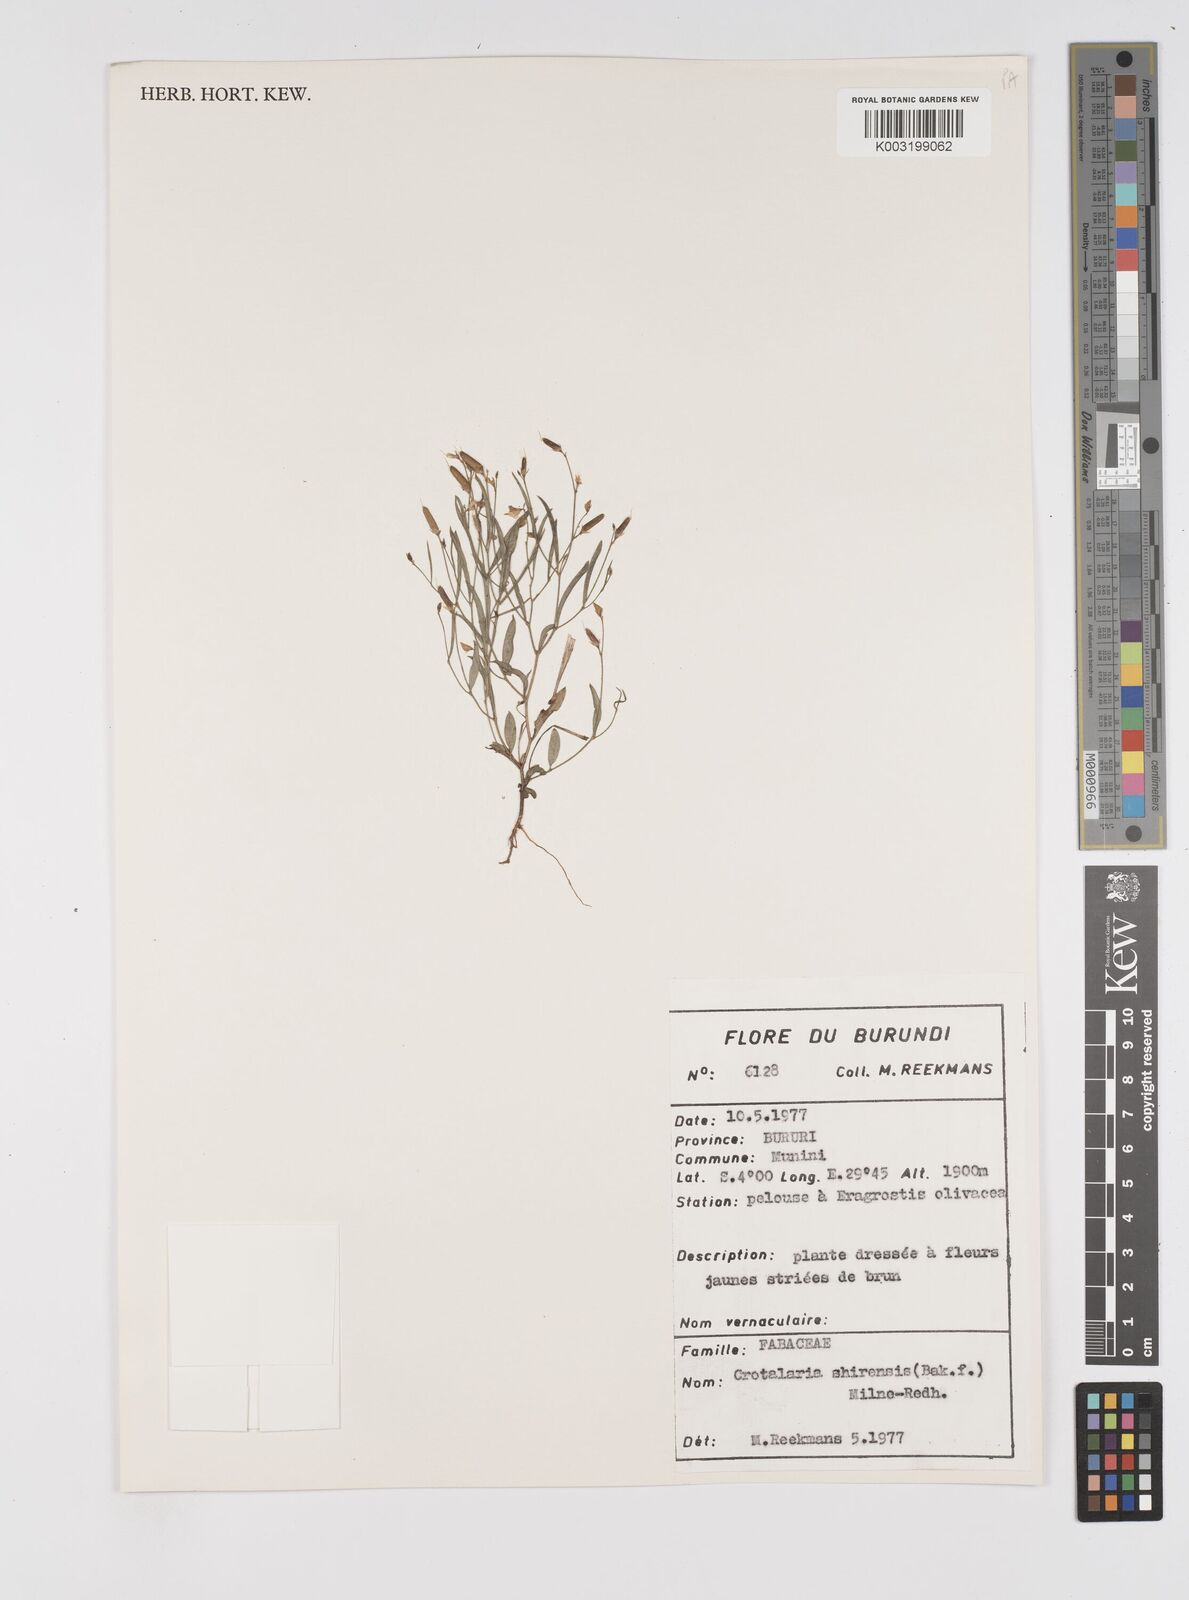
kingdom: Plantae
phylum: Tracheophyta
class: Magnoliopsida
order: Fabales
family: Fabaceae
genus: Crotalaria
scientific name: Crotalaria shirensis
